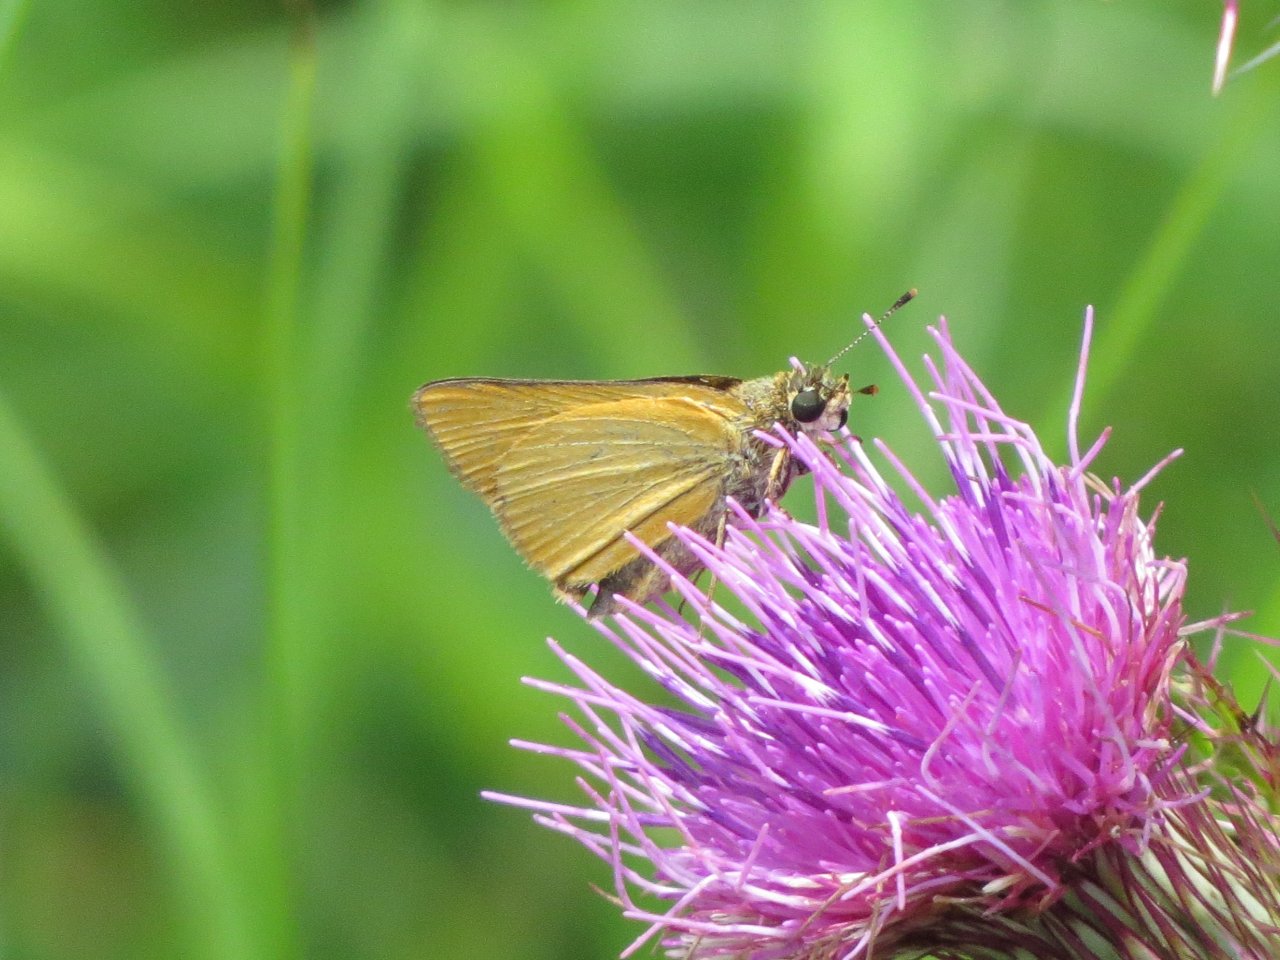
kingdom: Animalia
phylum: Arthropoda
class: Insecta
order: Lepidoptera
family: Hesperiidae
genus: Atrytone
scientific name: Atrytone delaware
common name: Delaware Skipper
